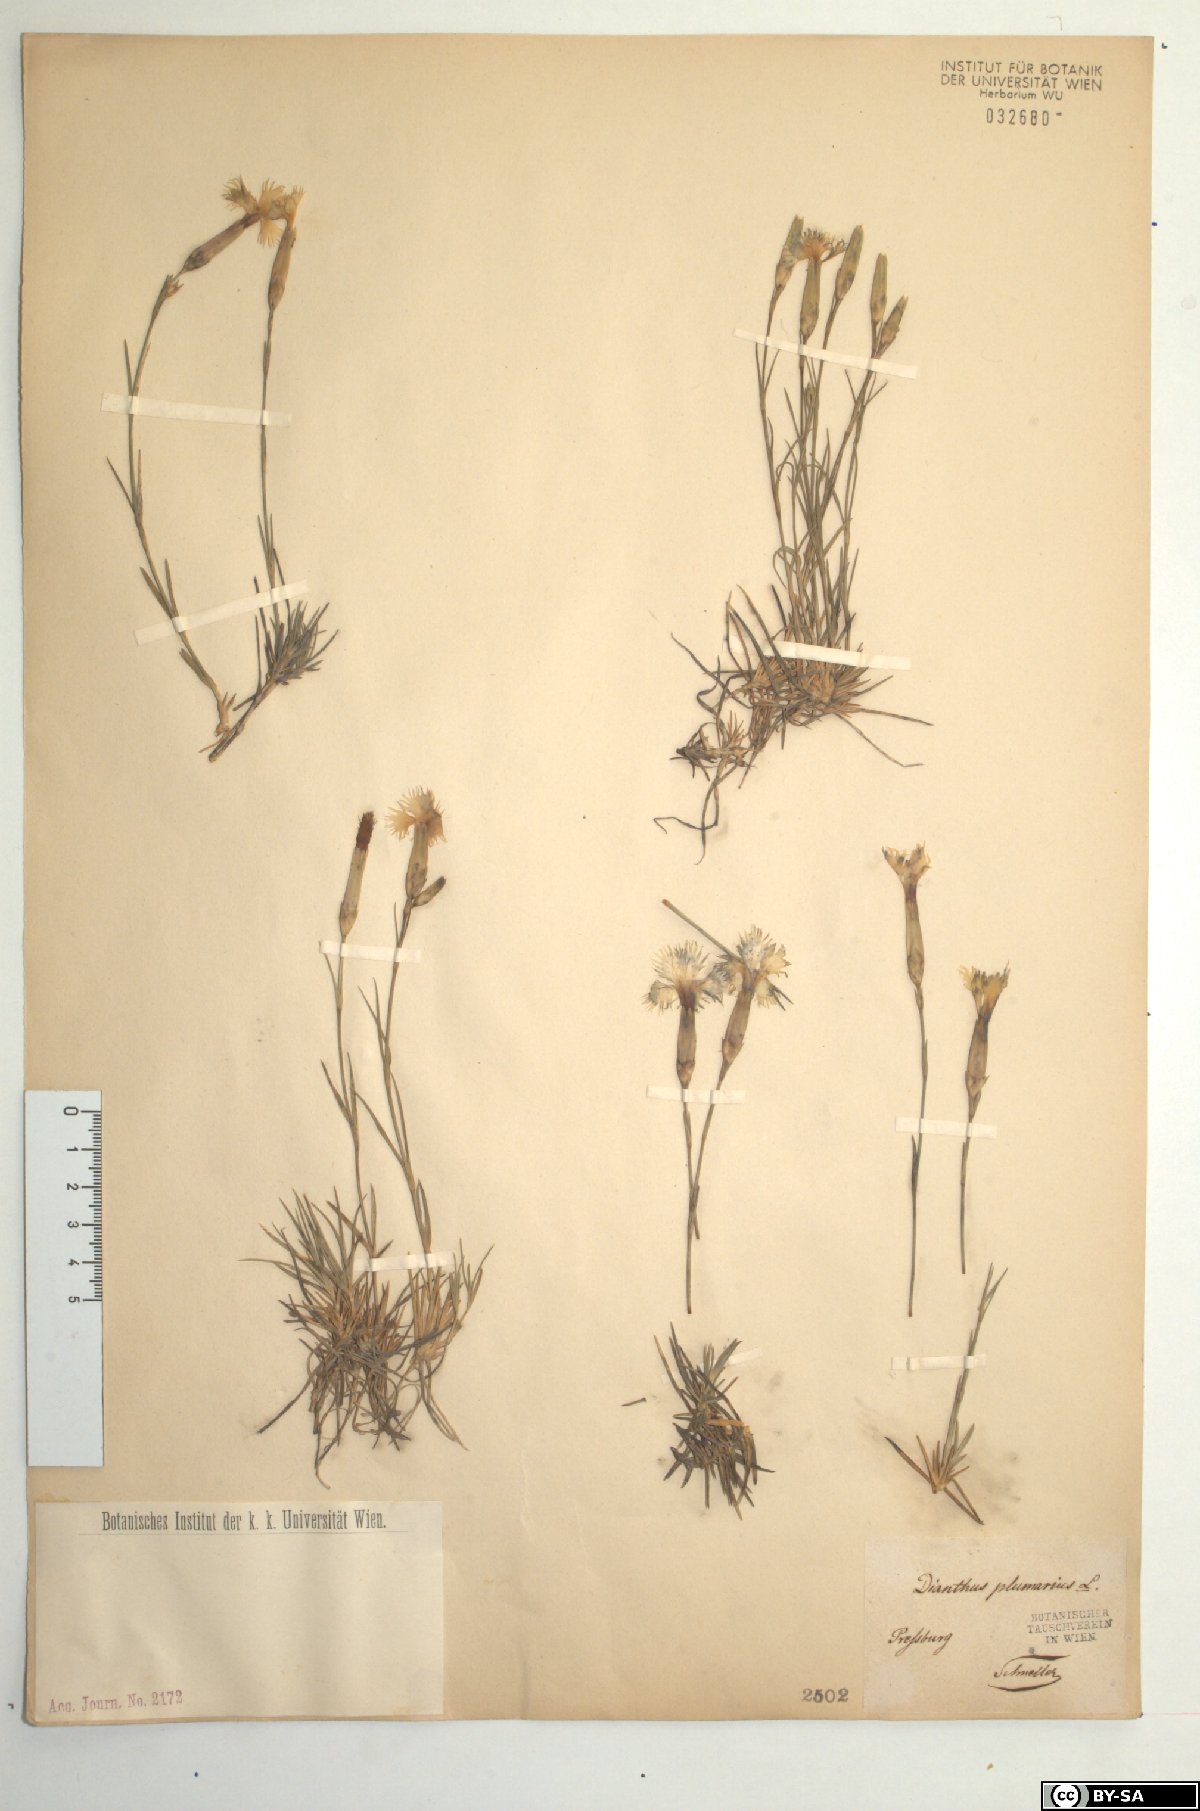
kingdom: Plantae
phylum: Tracheophyta
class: Magnoliopsida
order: Caryophyllales
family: Caryophyllaceae
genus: Dianthus
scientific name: Dianthus plumarius
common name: Pink
